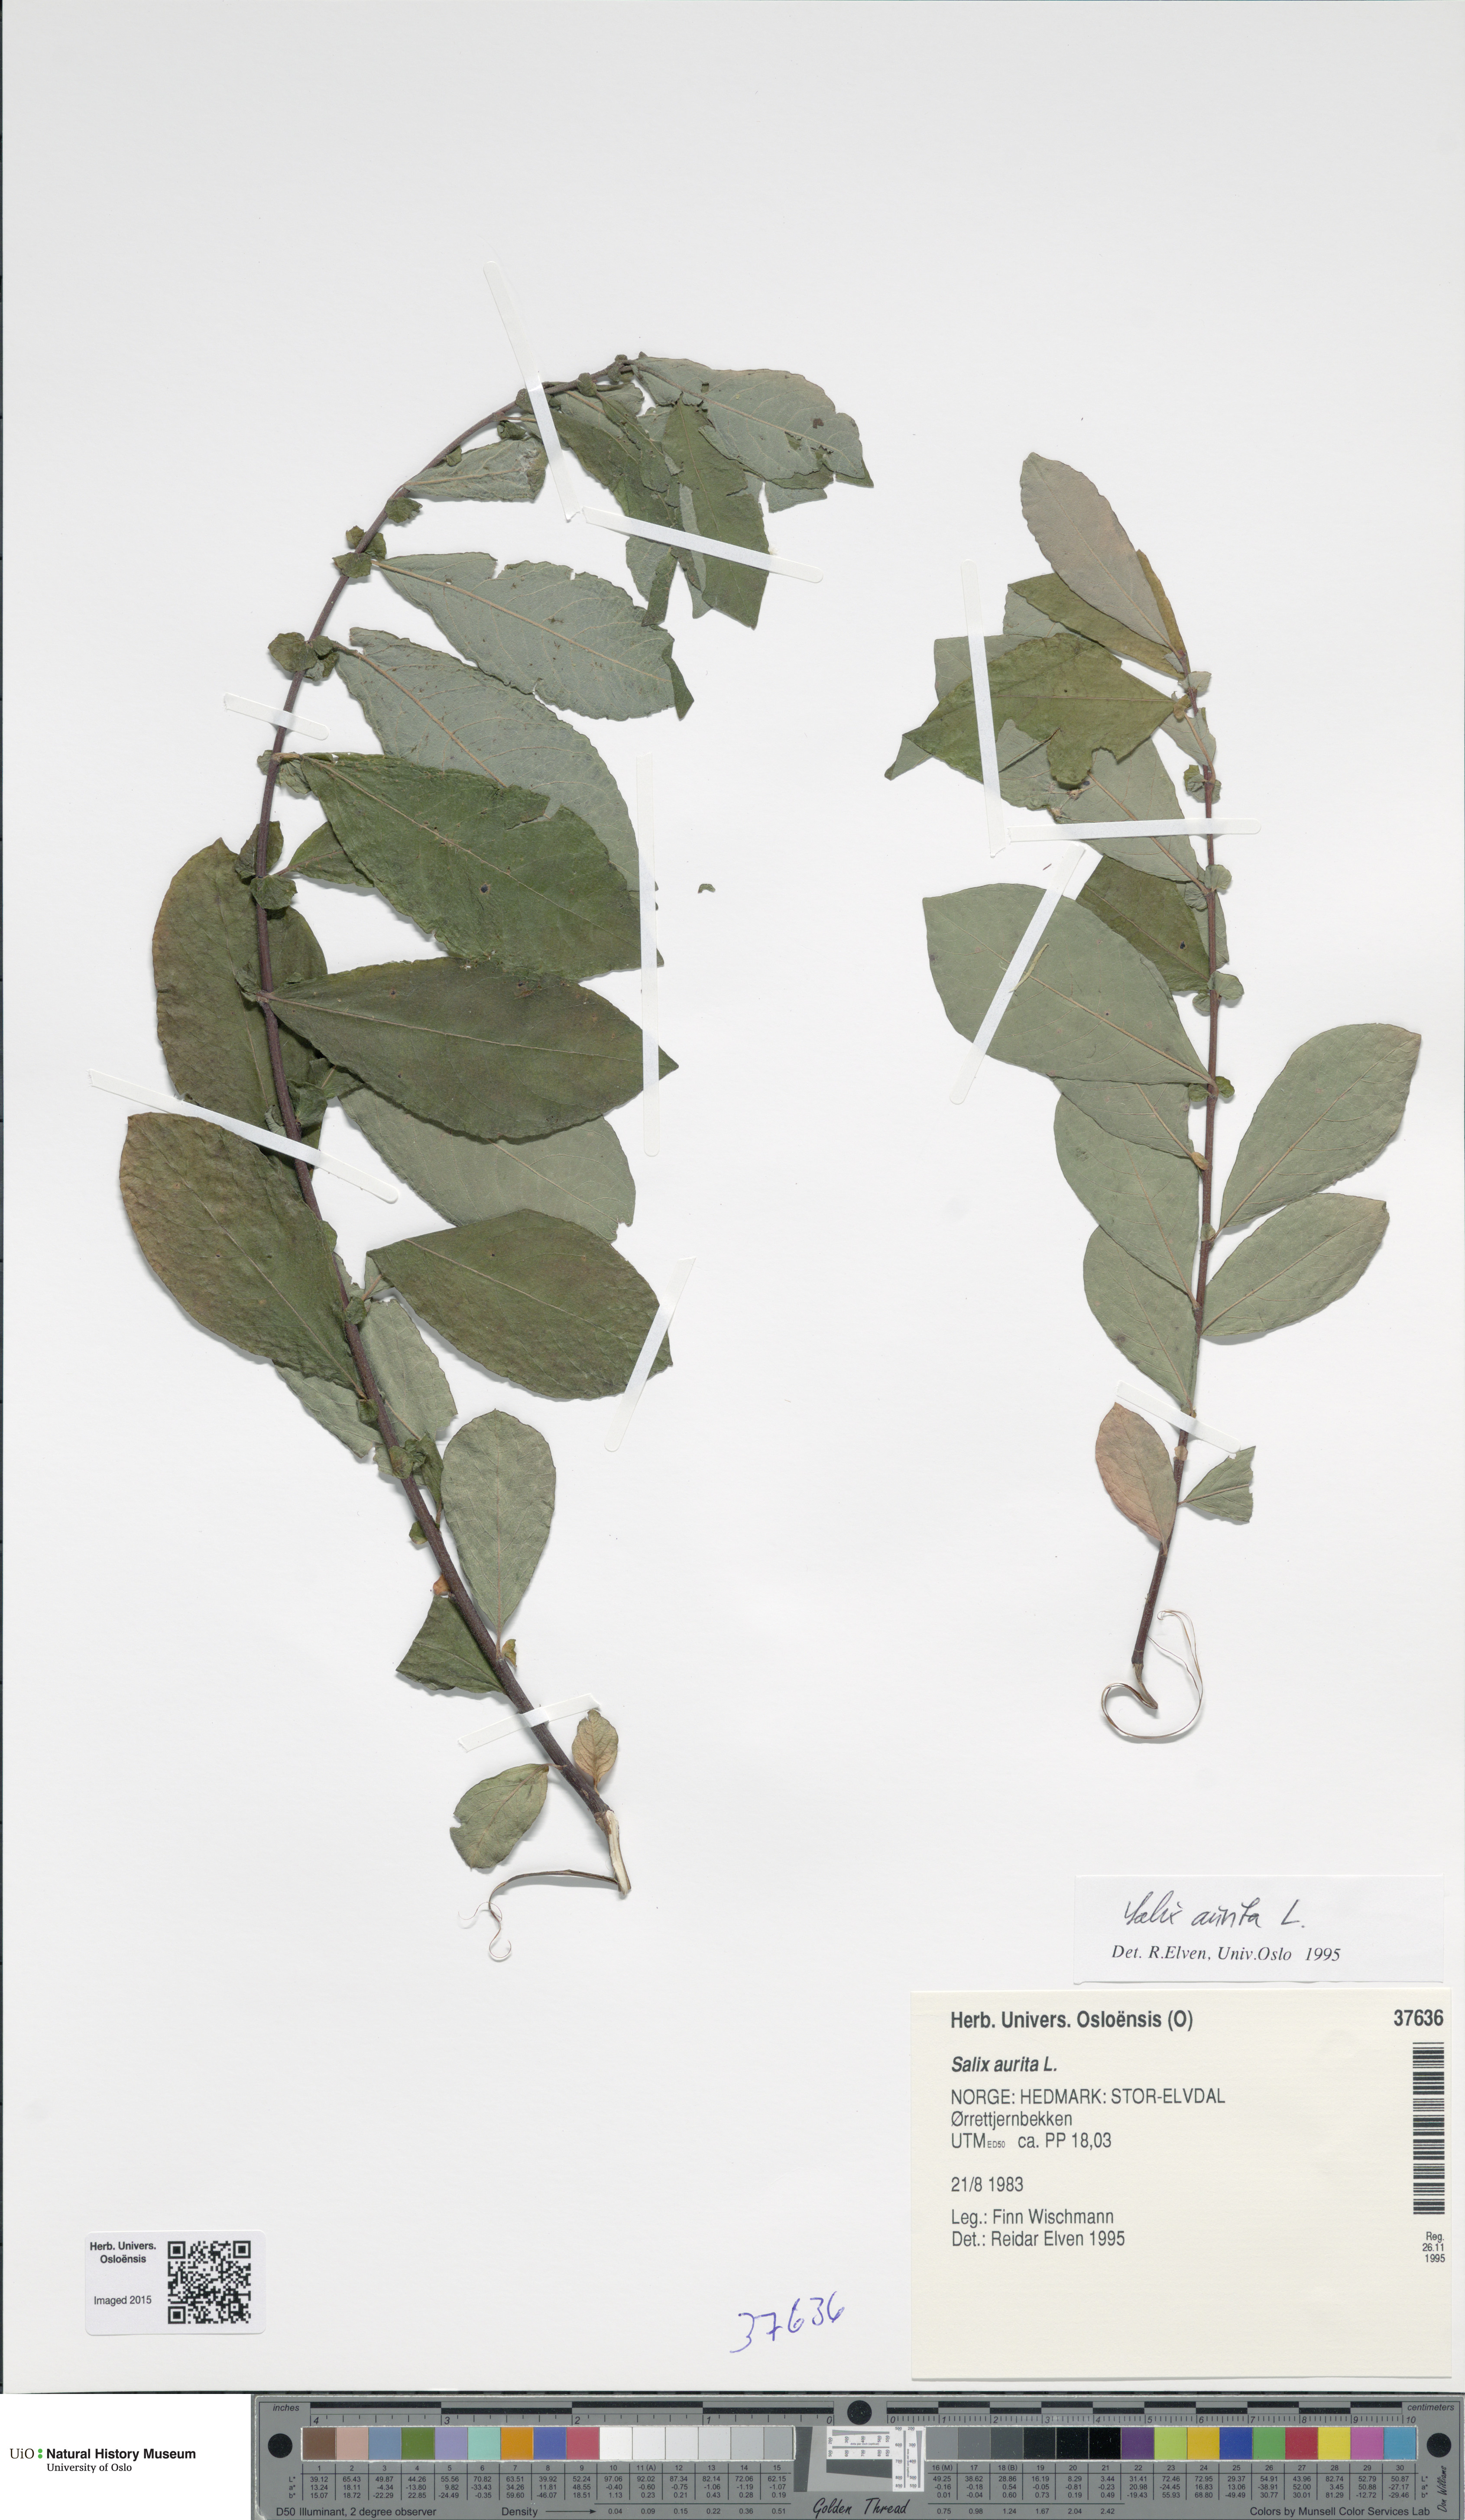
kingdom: Plantae
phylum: Tracheophyta
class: Magnoliopsida
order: Malpighiales
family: Salicaceae
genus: Salix
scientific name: Salix aurita
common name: Eared willow
